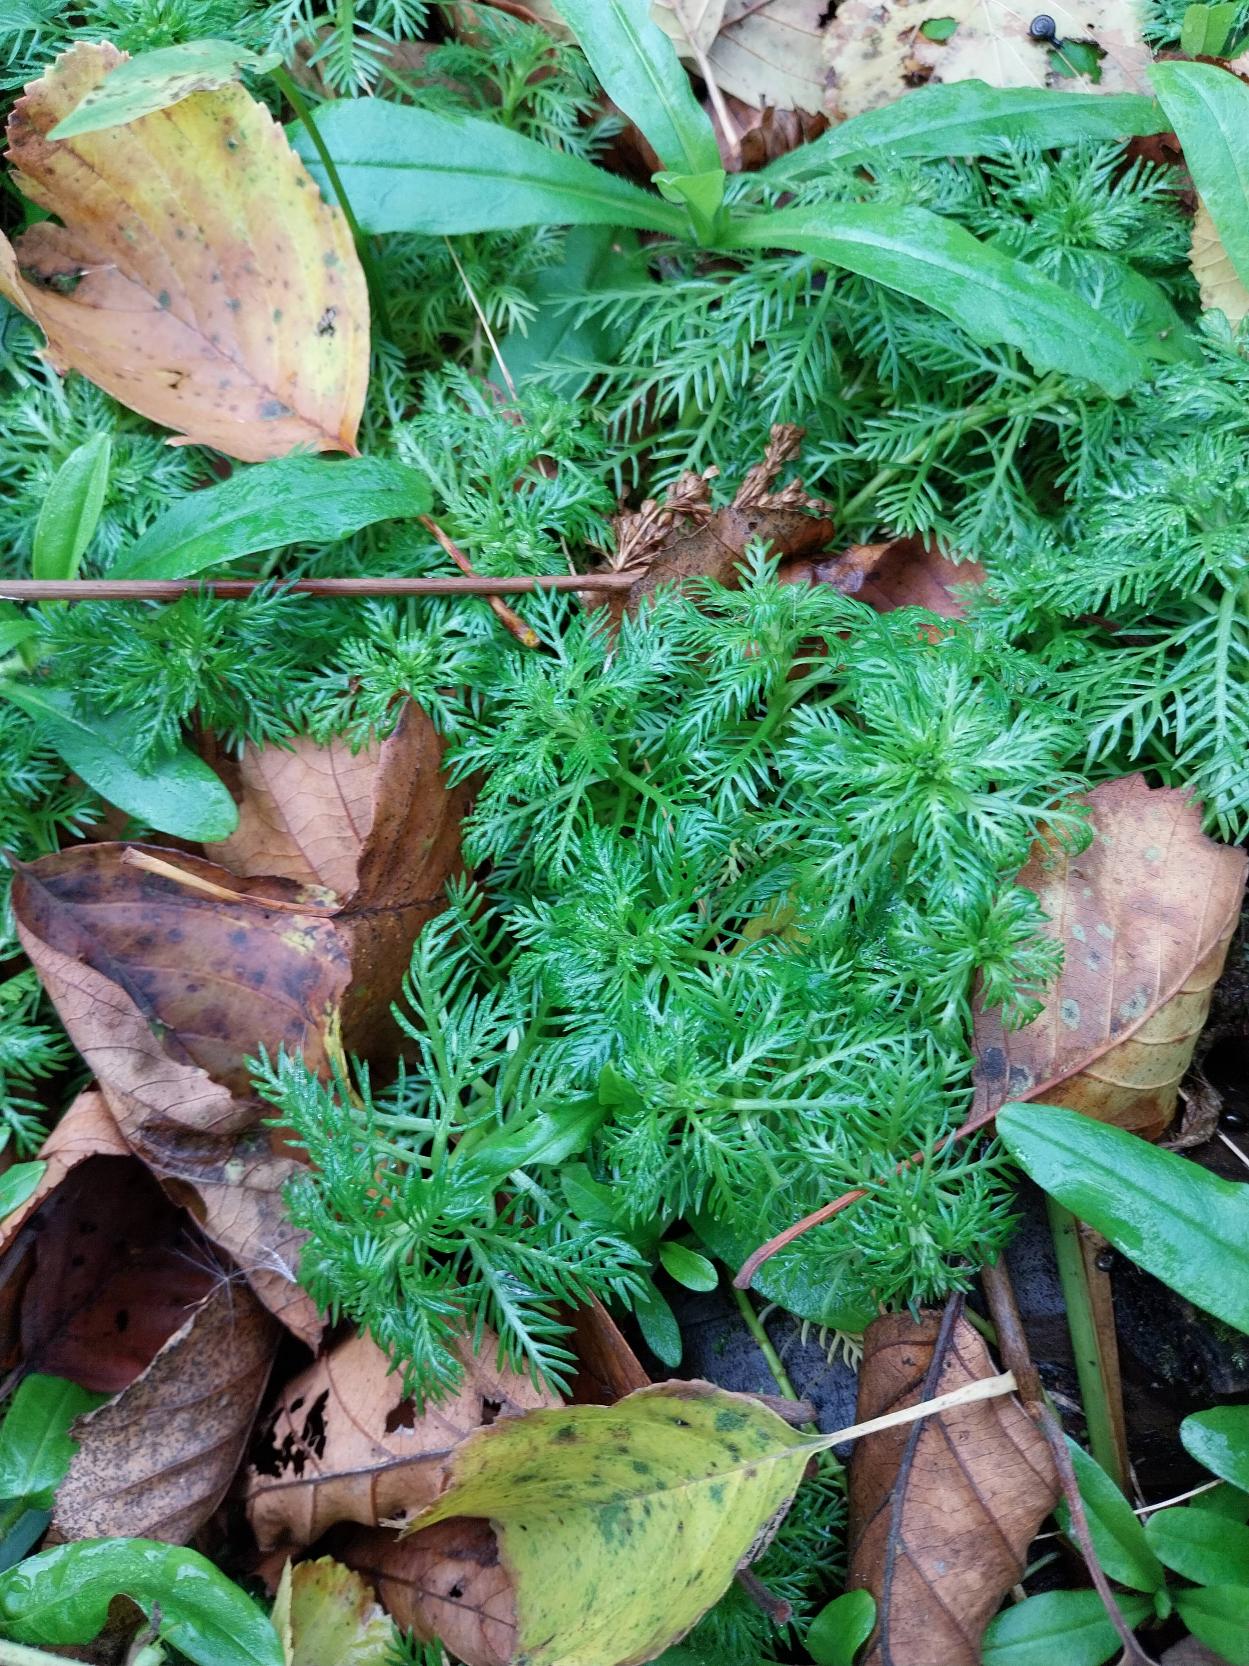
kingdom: Plantae
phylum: Tracheophyta
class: Magnoliopsida
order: Ericales
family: Primulaceae
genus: Hottonia
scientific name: Hottonia palustris
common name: Vandrøllike
